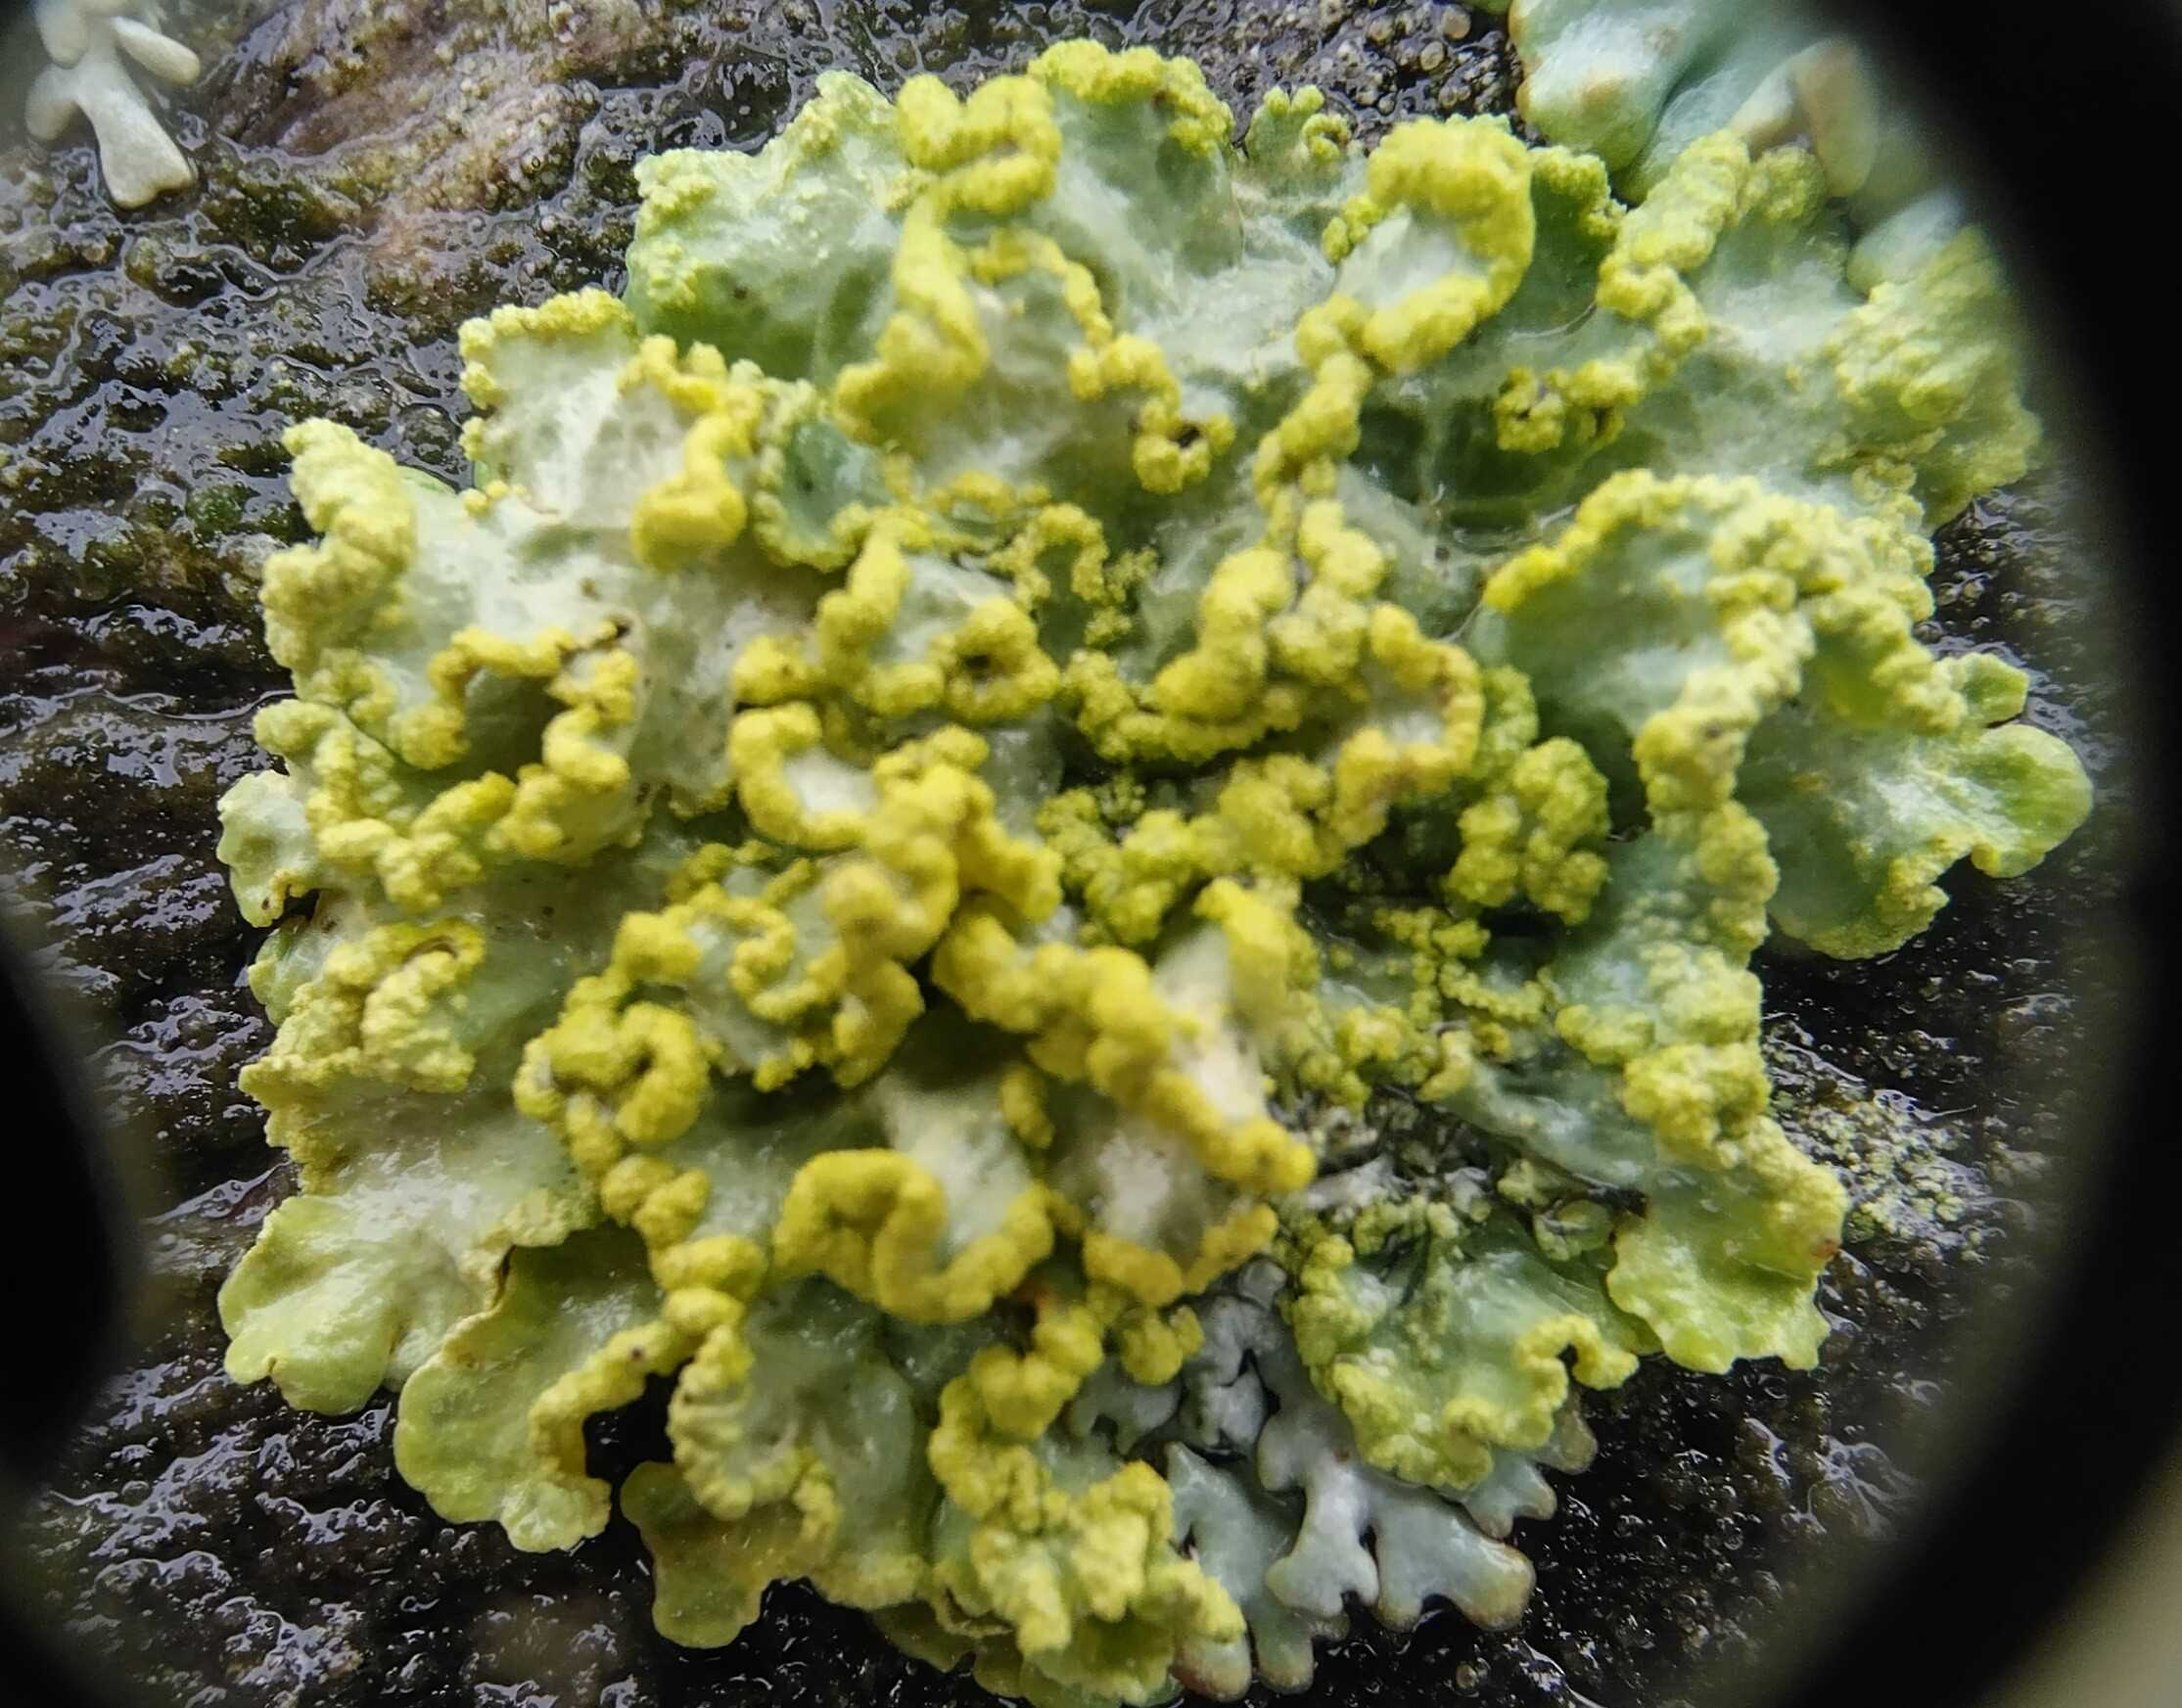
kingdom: Fungi
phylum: Ascomycota
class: Lecanoromycetes
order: Lecanorales
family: Parmeliaceae
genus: Vulpicida
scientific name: Vulpicida pinastri
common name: Gul kruslav
